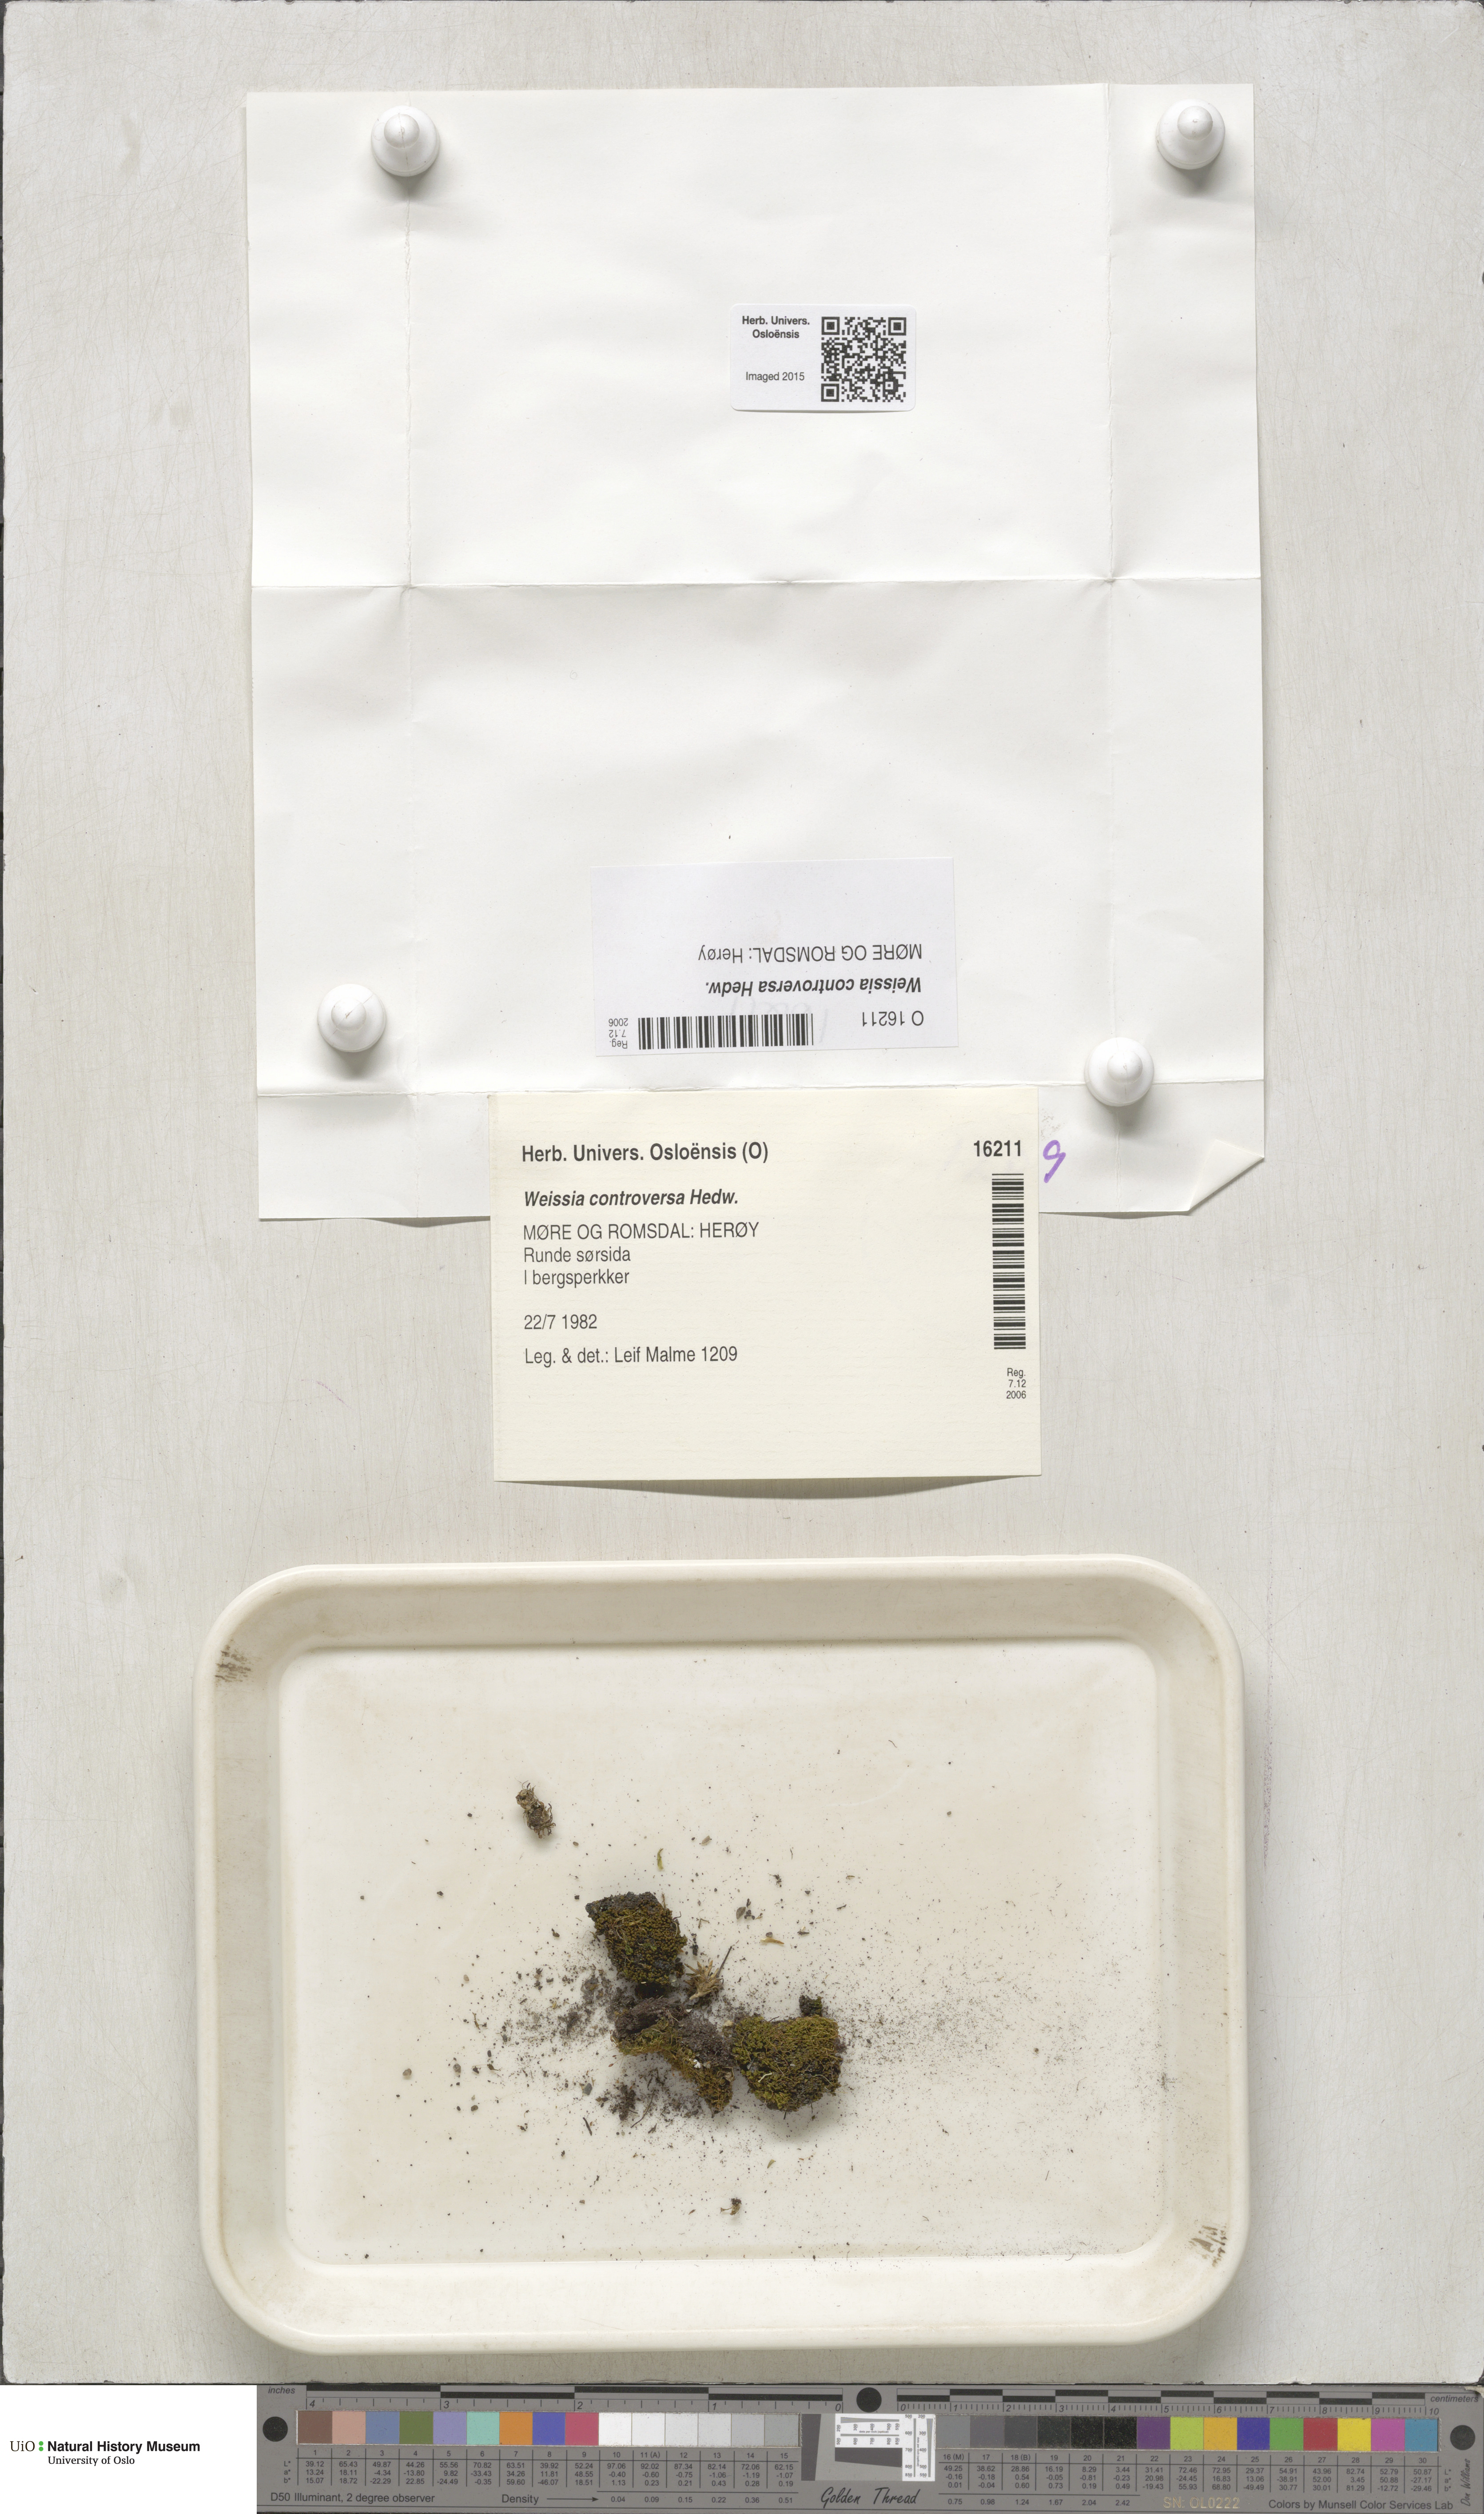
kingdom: Plantae
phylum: Bryophyta
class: Bryopsida
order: Pottiales
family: Pottiaceae
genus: Weissia
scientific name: Weissia controversa
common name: Green-tufted stubble moss
